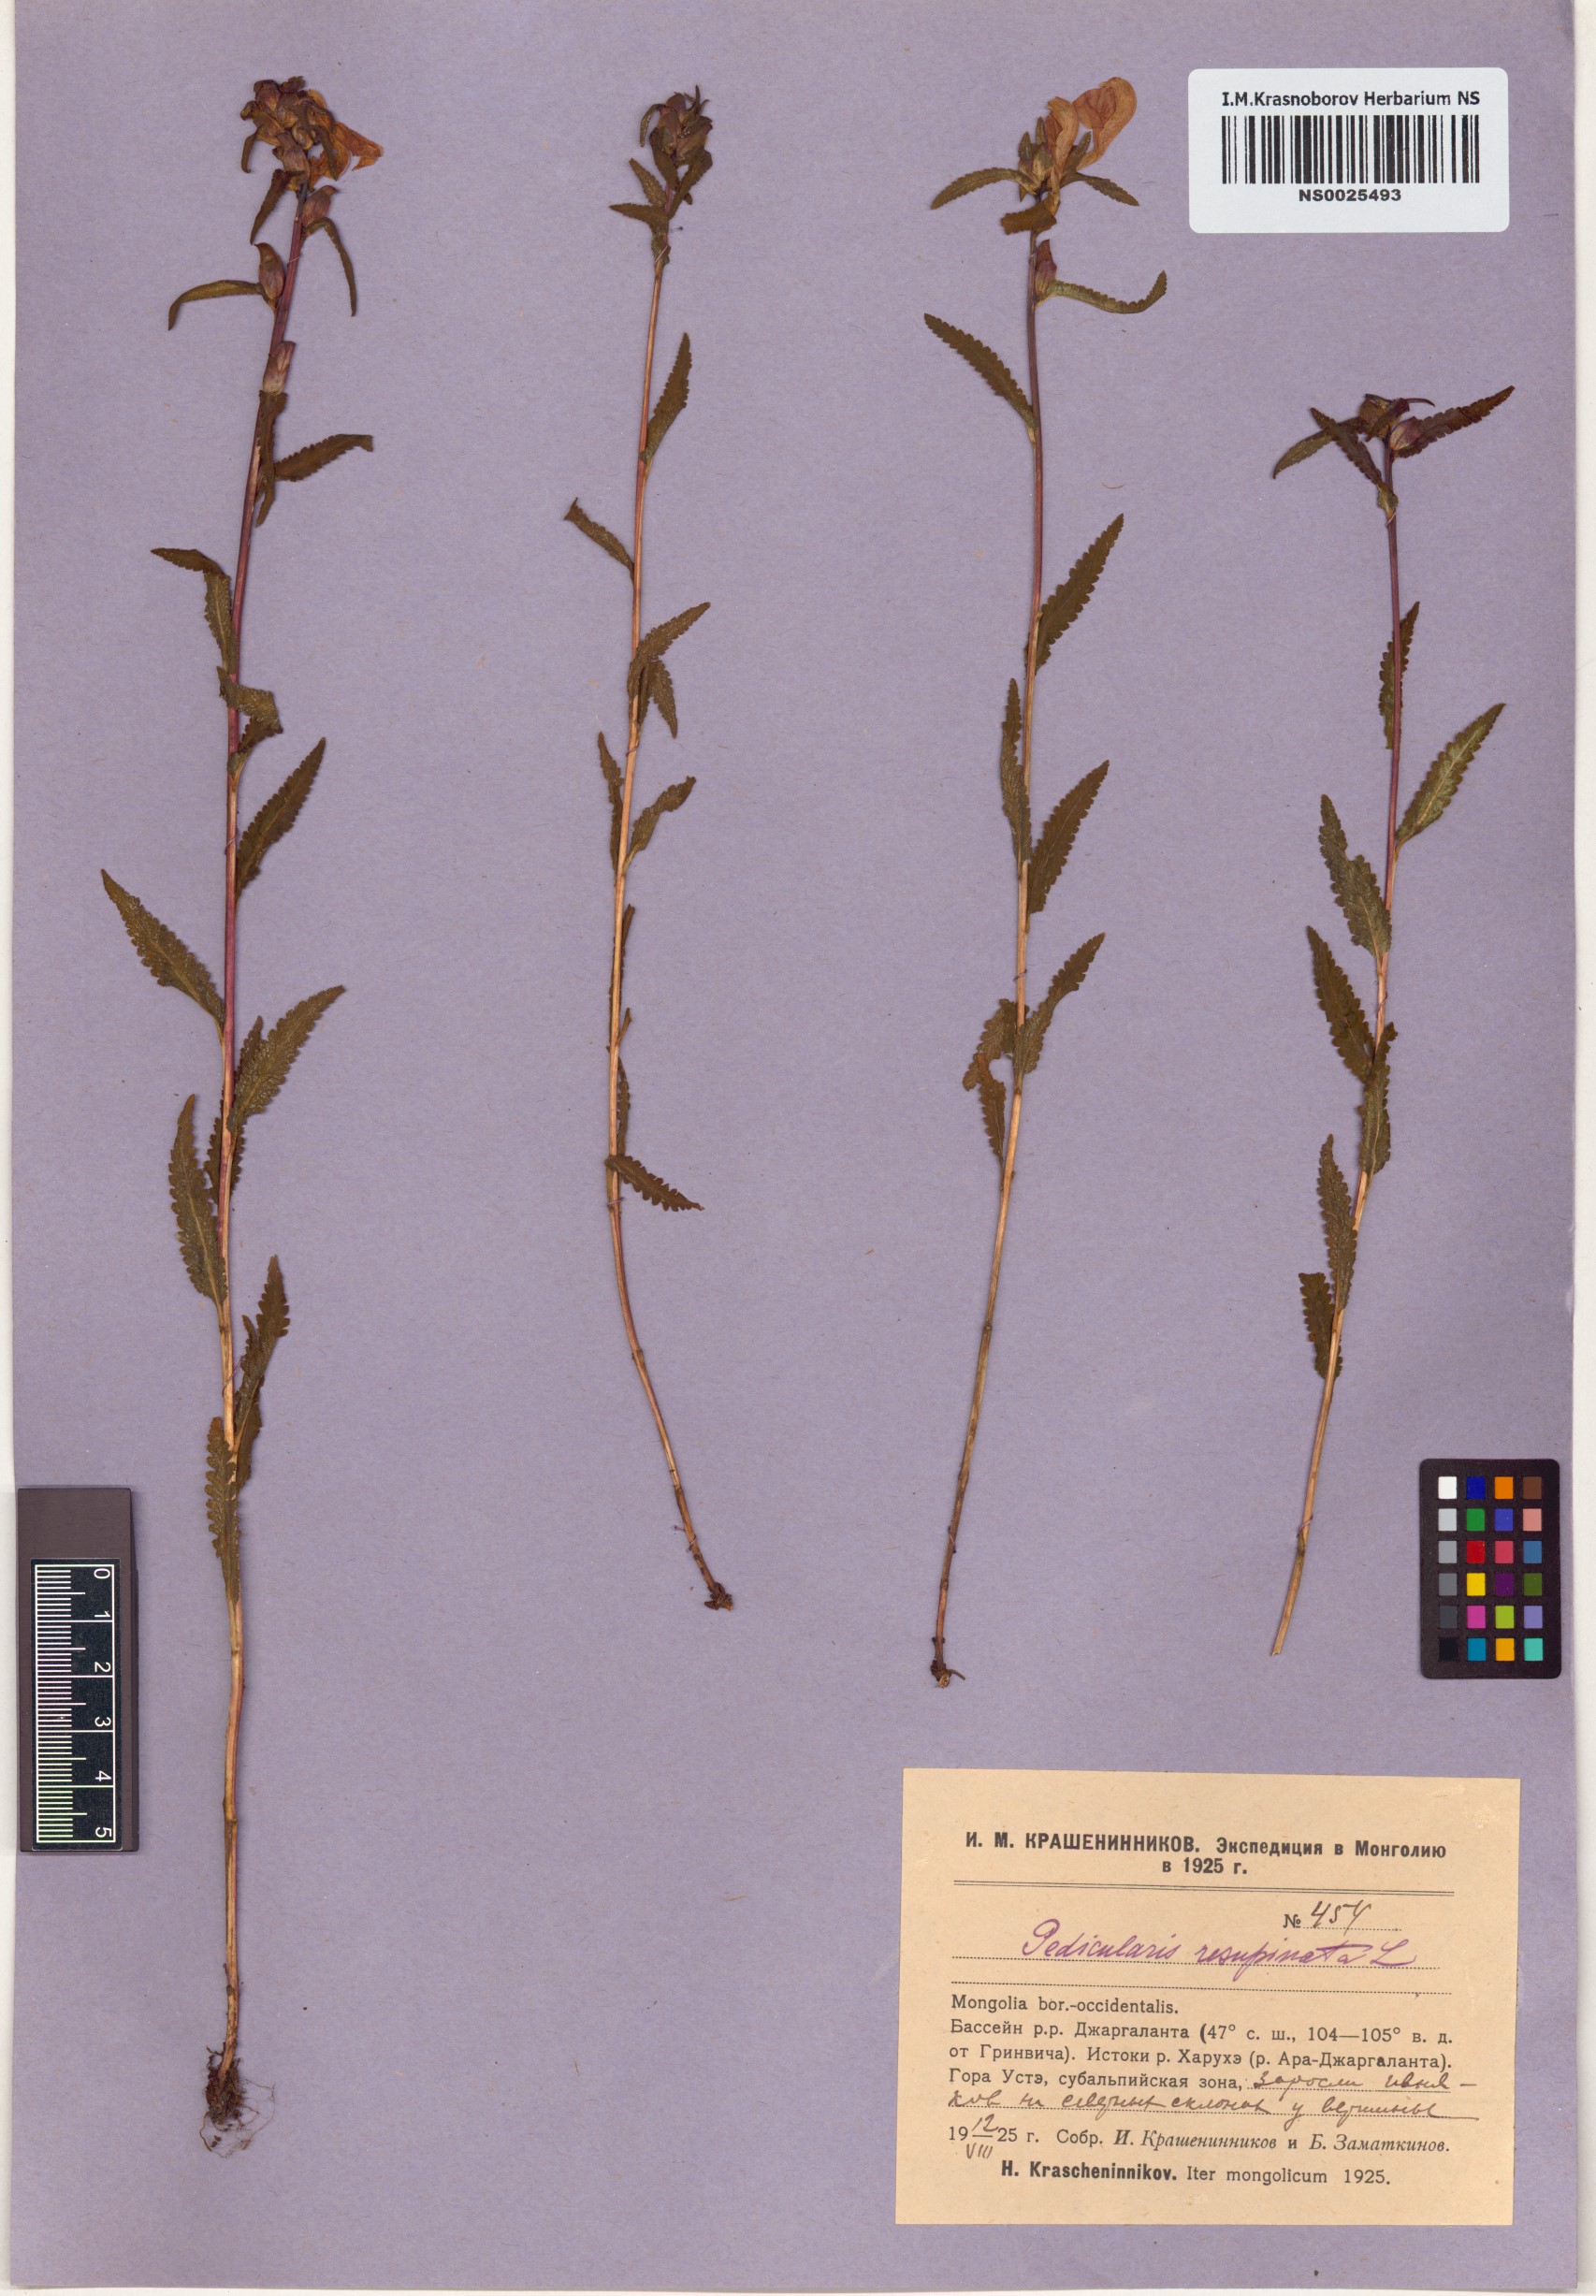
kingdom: Plantae
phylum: Tracheophyta
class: Magnoliopsida
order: Lamiales
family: Orobanchaceae
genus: Pedicularis
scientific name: Pedicularis resupinata
